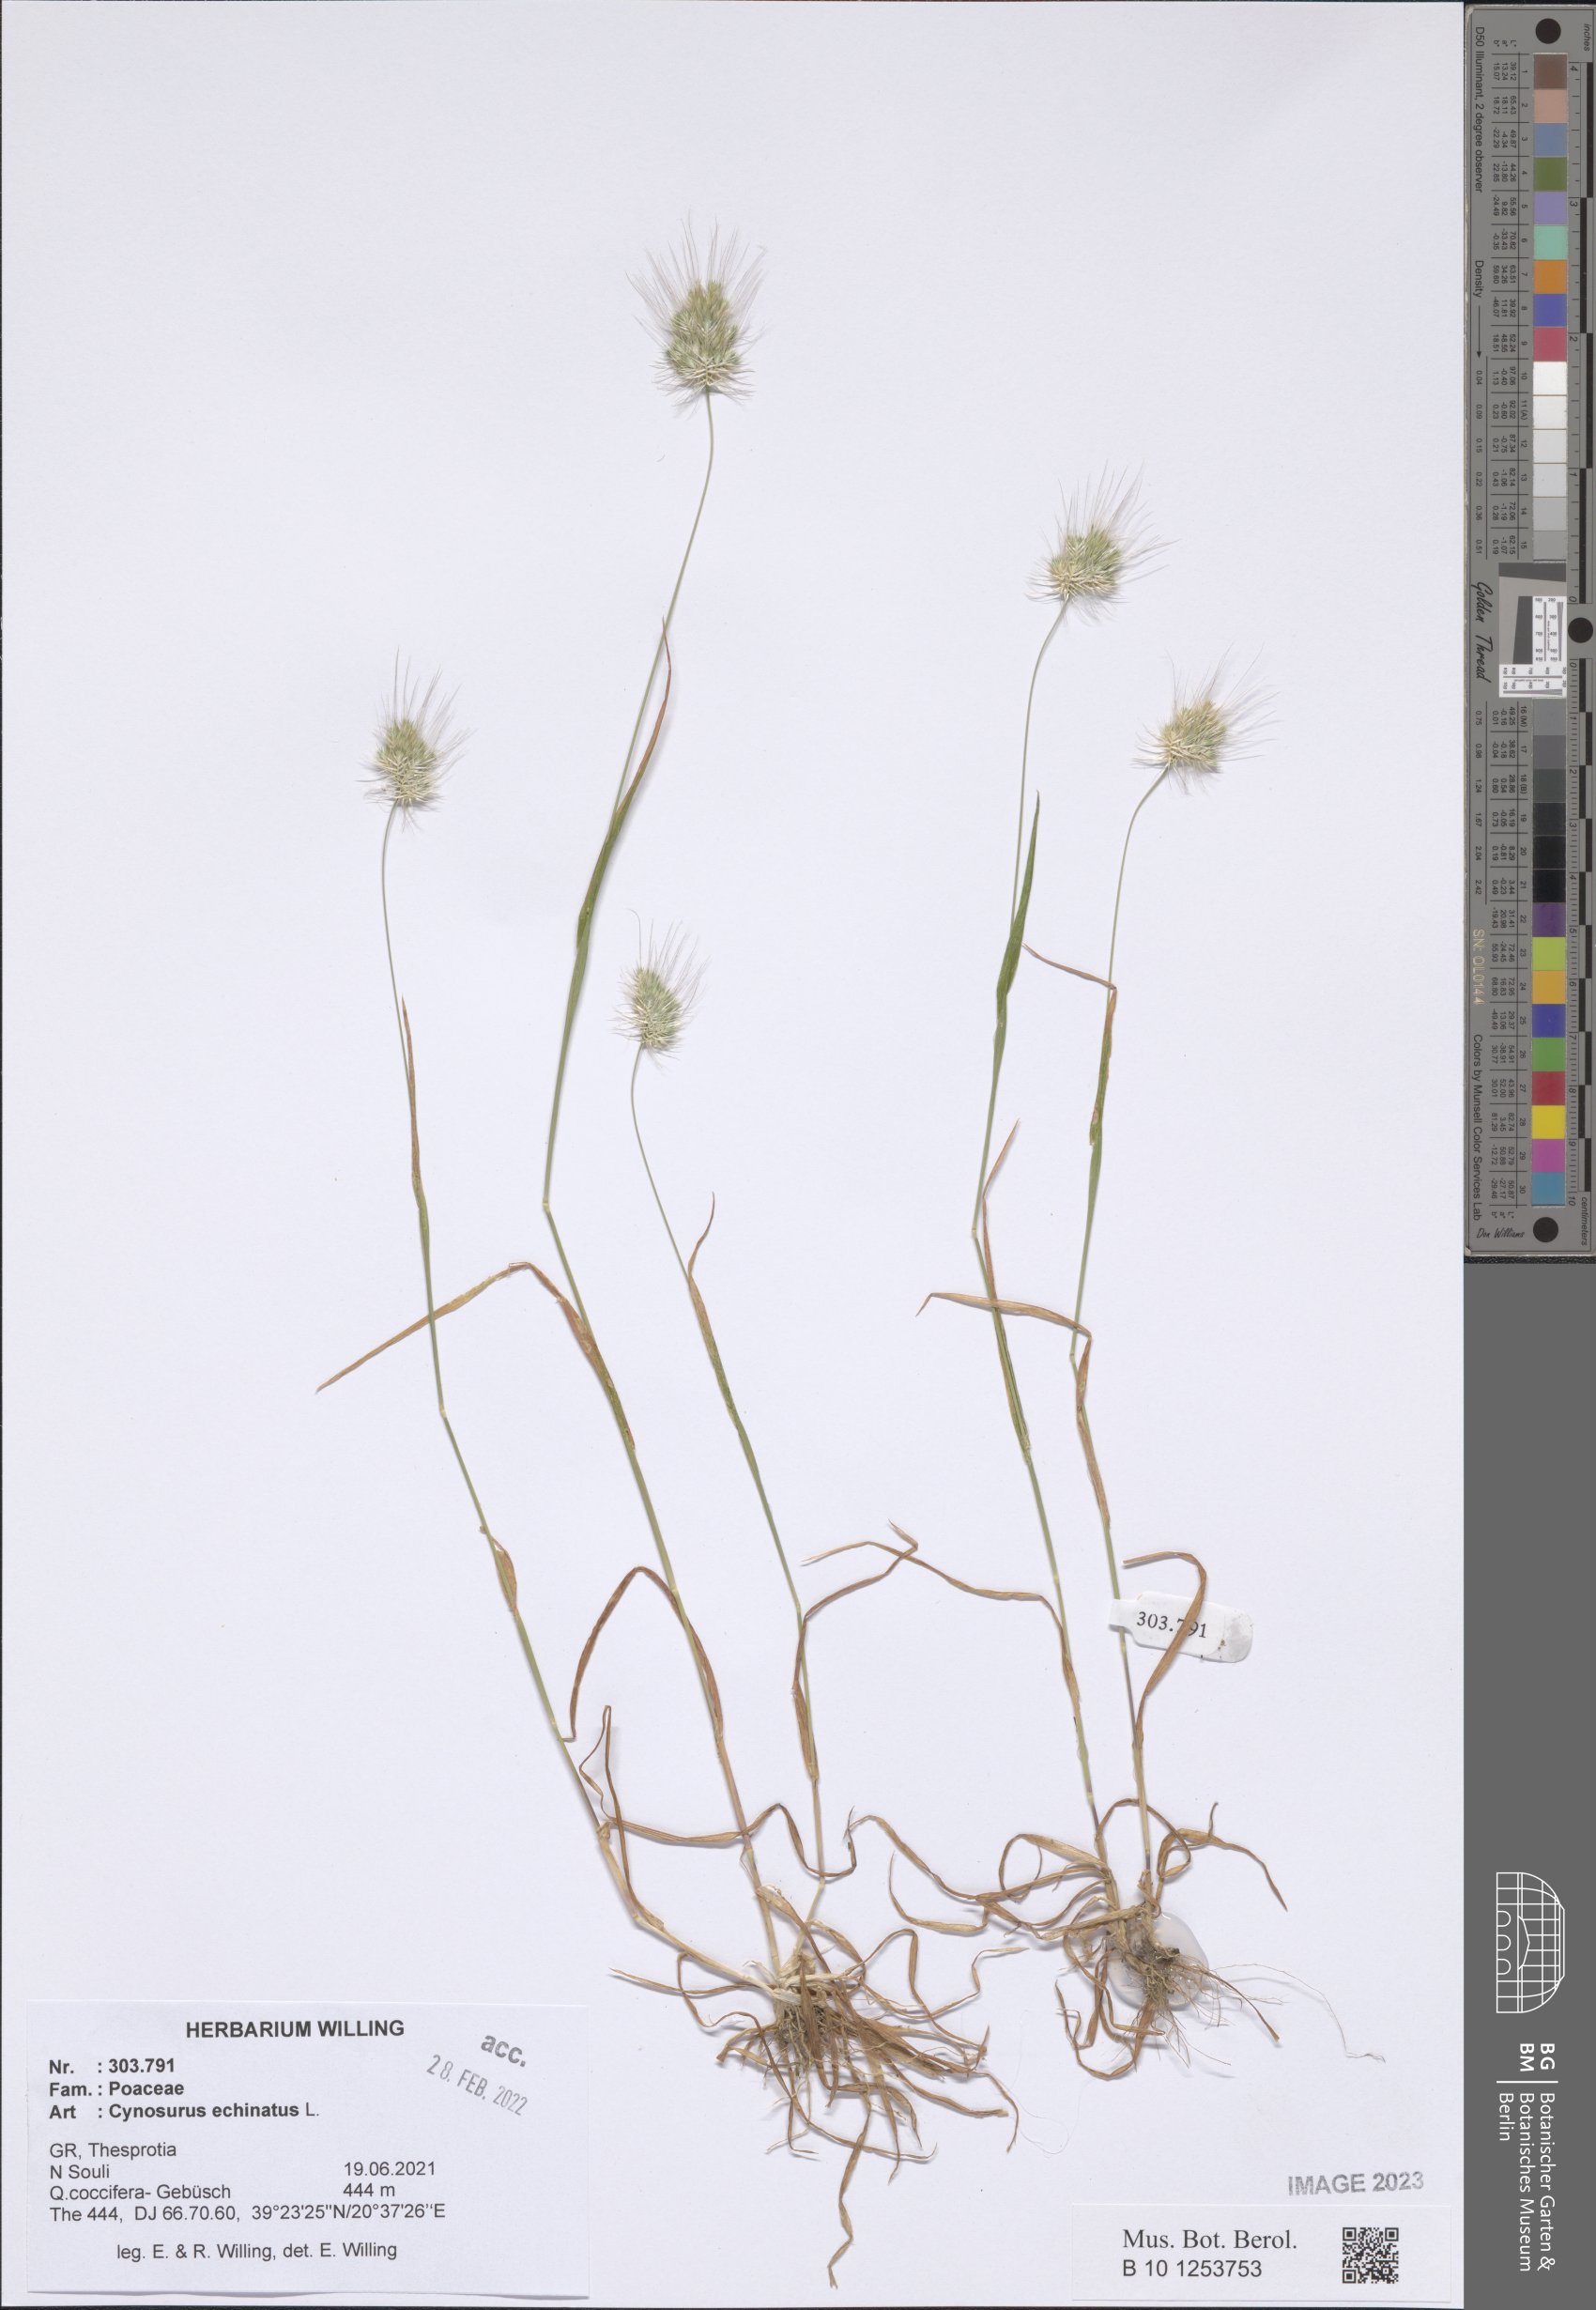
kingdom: Plantae
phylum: Tracheophyta
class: Liliopsida
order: Poales
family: Poaceae
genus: Cynosurus
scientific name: Cynosurus echinatus
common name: Rough dog's-tail
